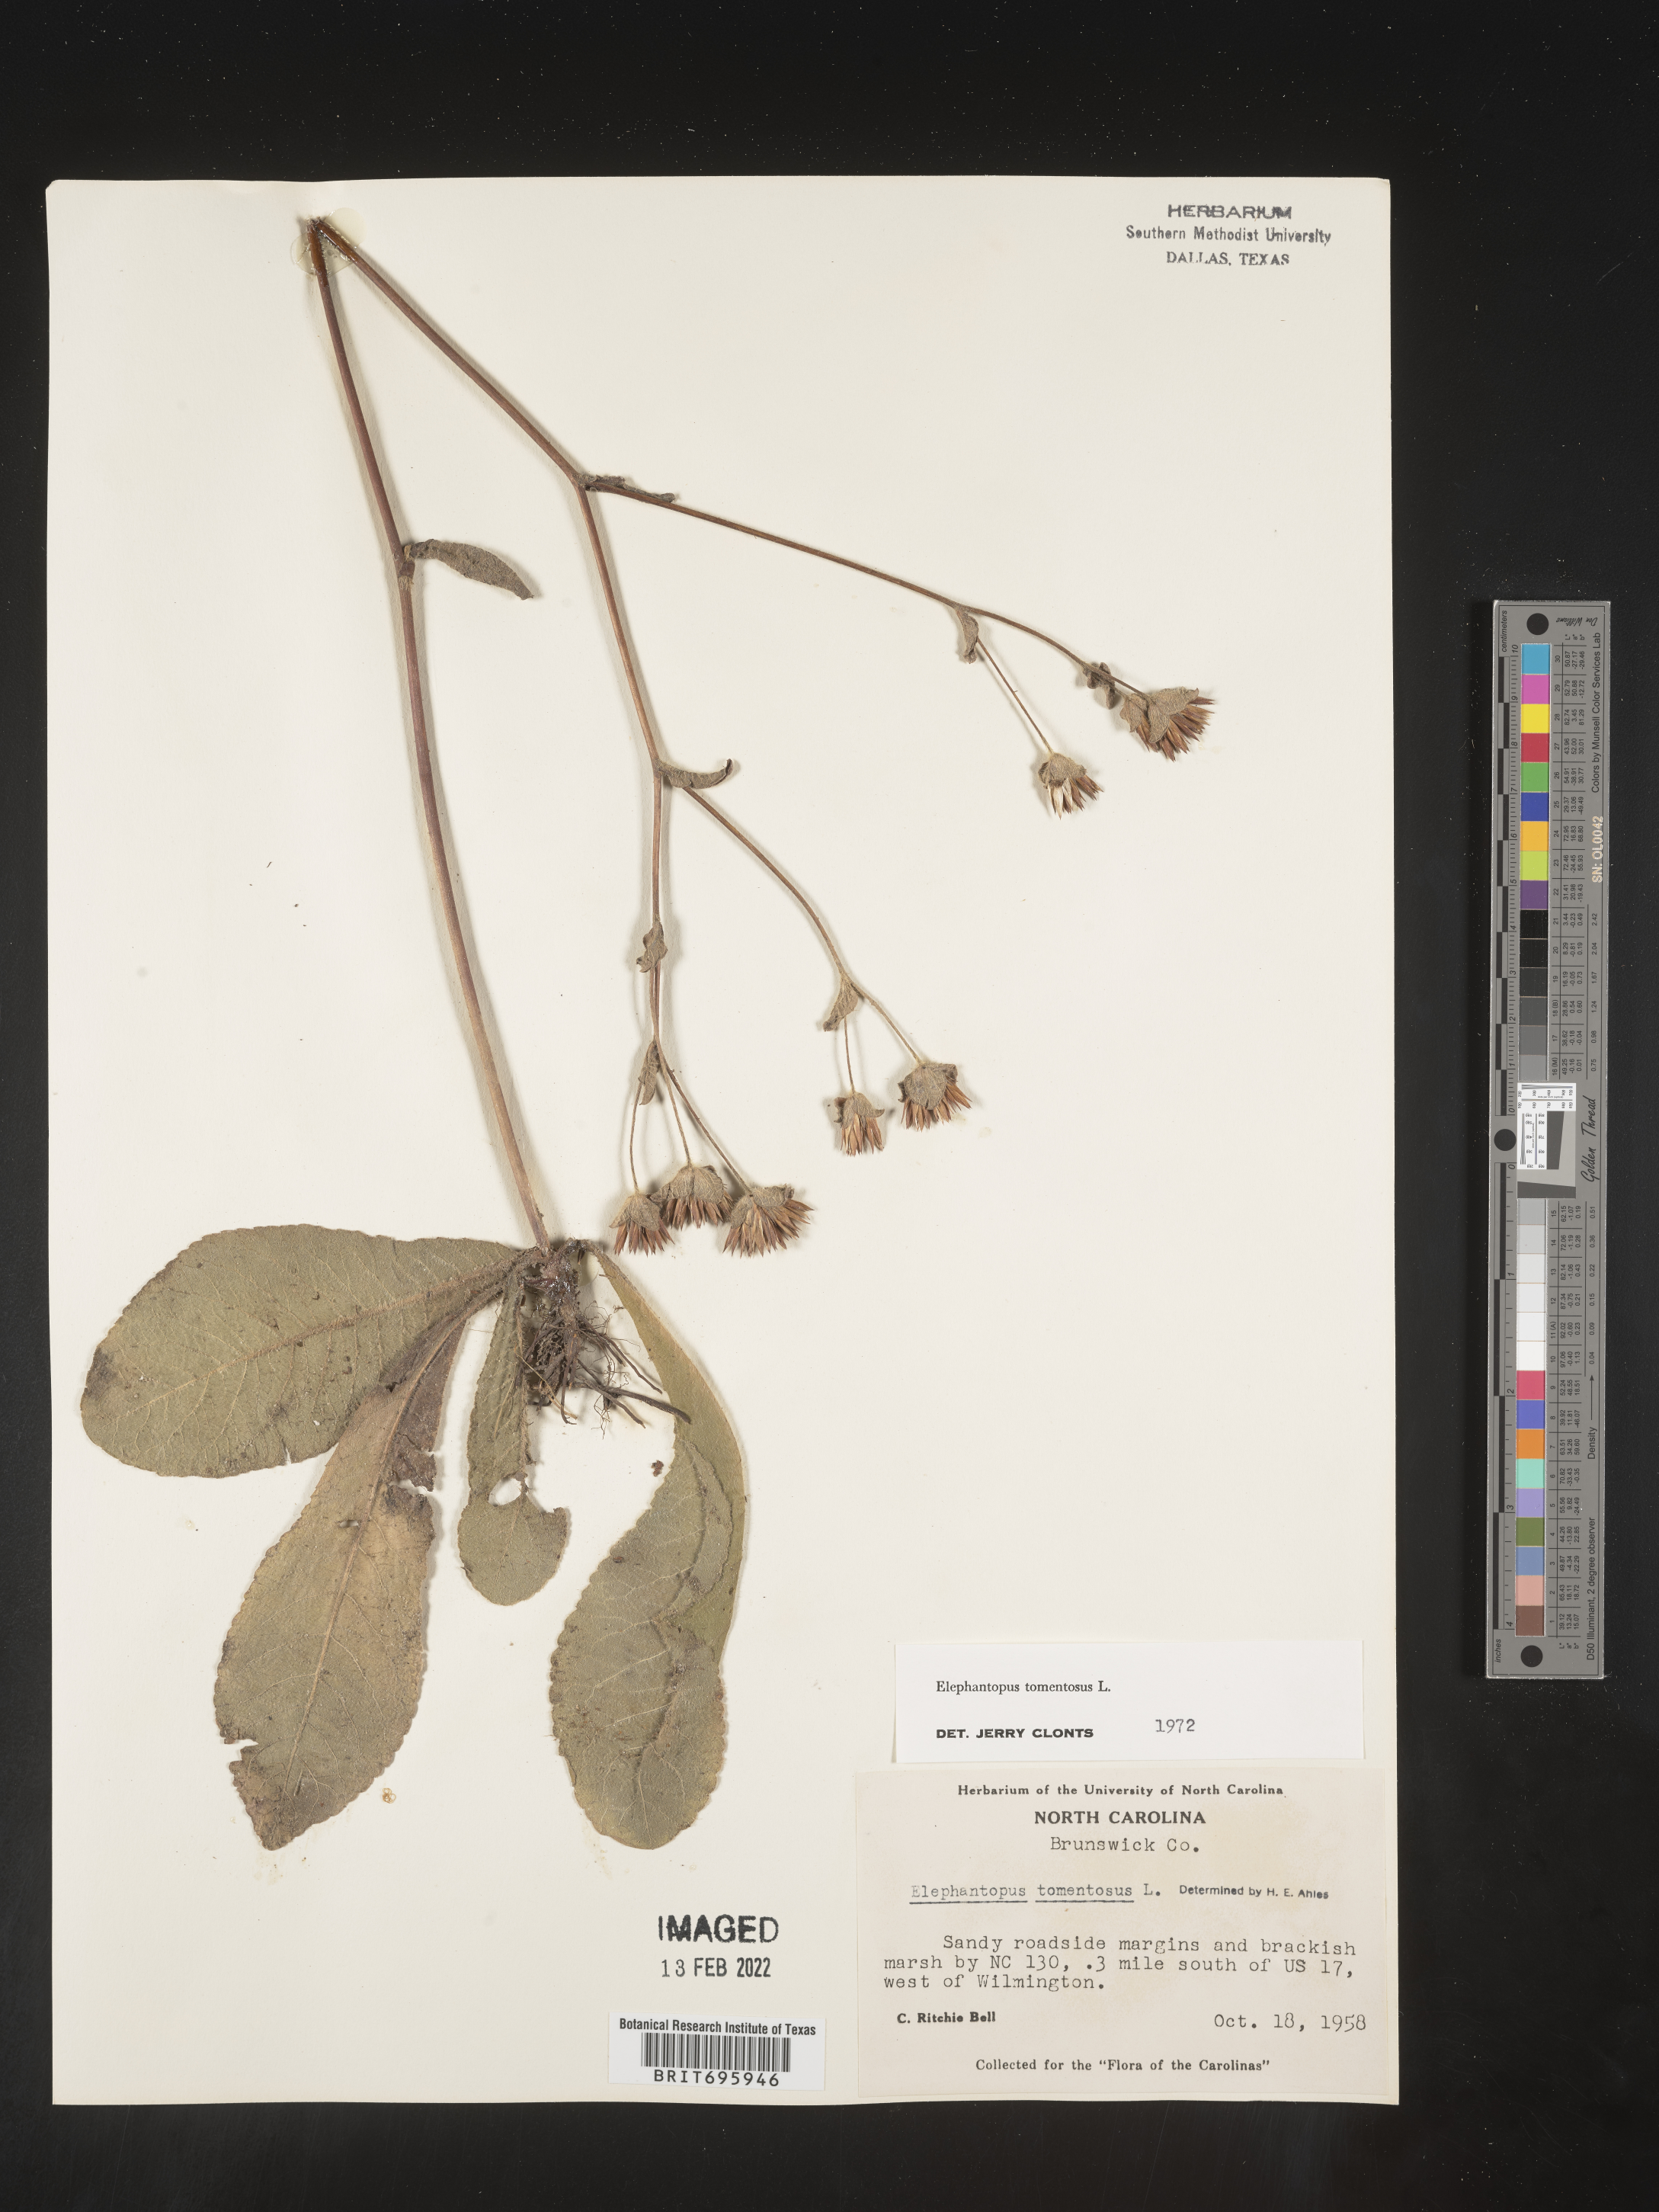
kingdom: Plantae
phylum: Tracheophyta
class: Magnoliopsida
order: Asterales
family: Asteraceae
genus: Elephantopus
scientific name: Elephantopus tomentosus
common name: Tobacco-weed
